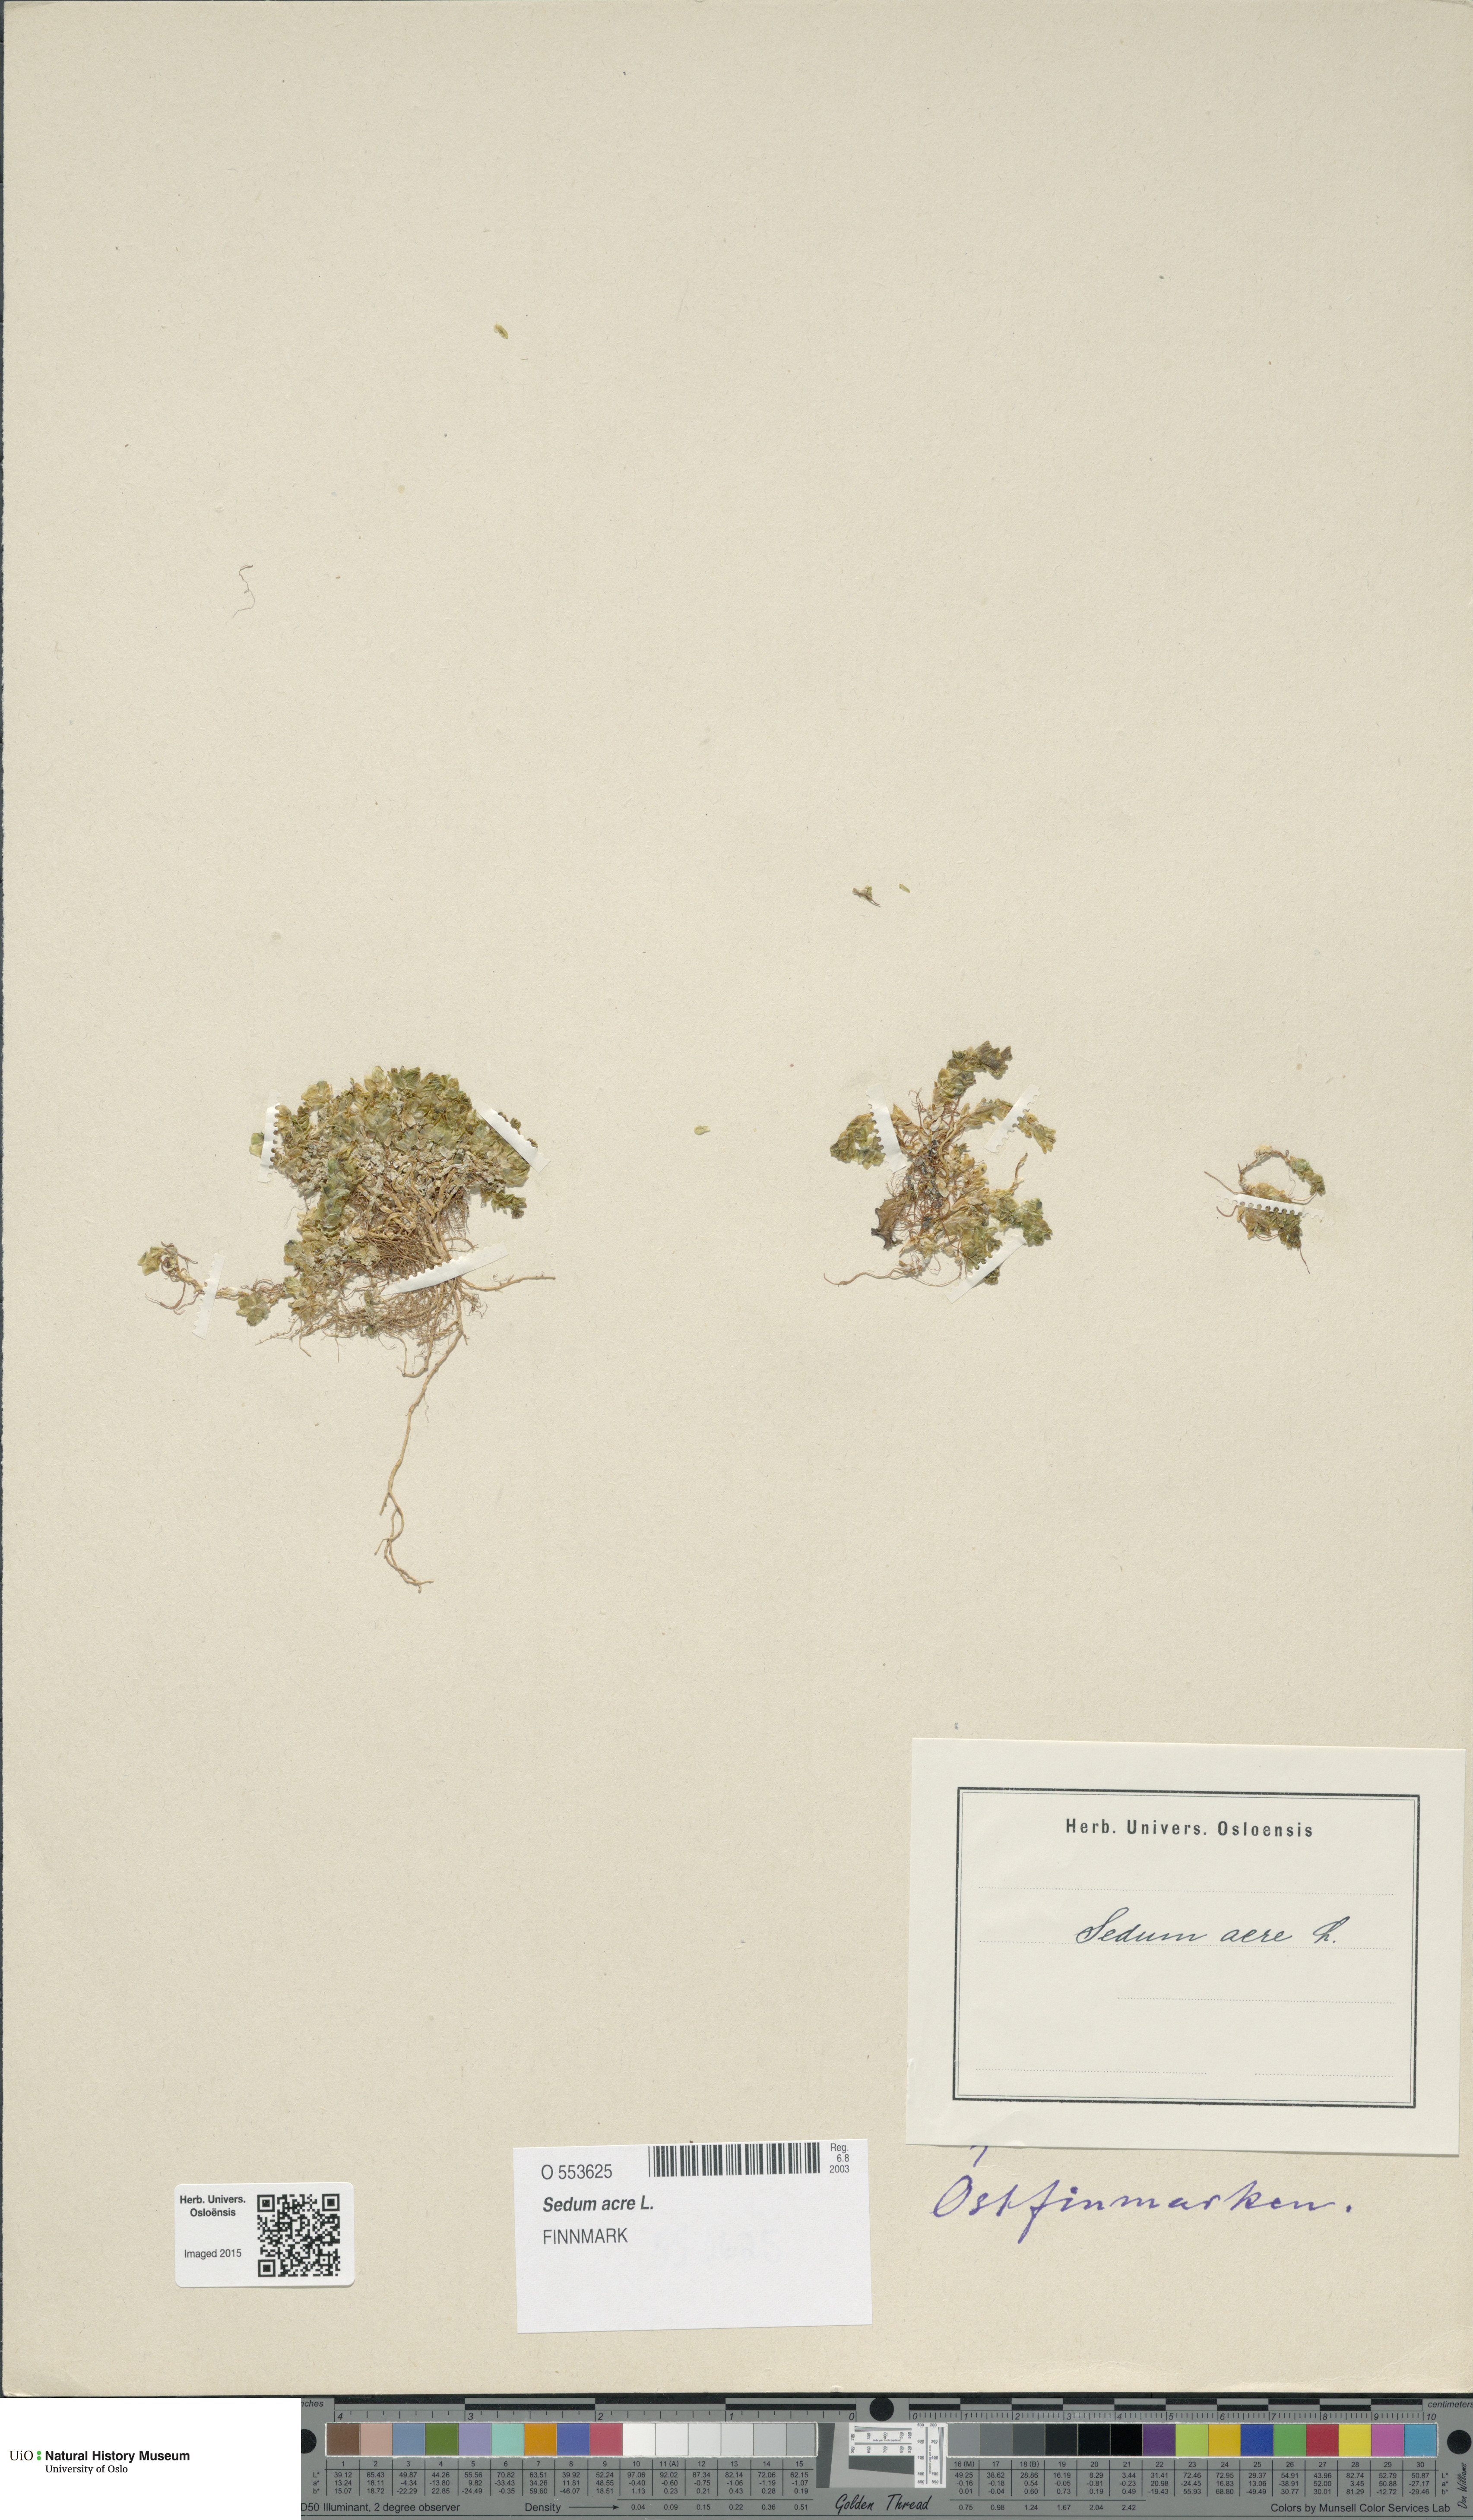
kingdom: Plantae
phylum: Tracheophyta
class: Magnoliopsida
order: Saxifragales
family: Crassulaceae
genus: Sedum
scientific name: Sedum acre
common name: Biting stonecrop
